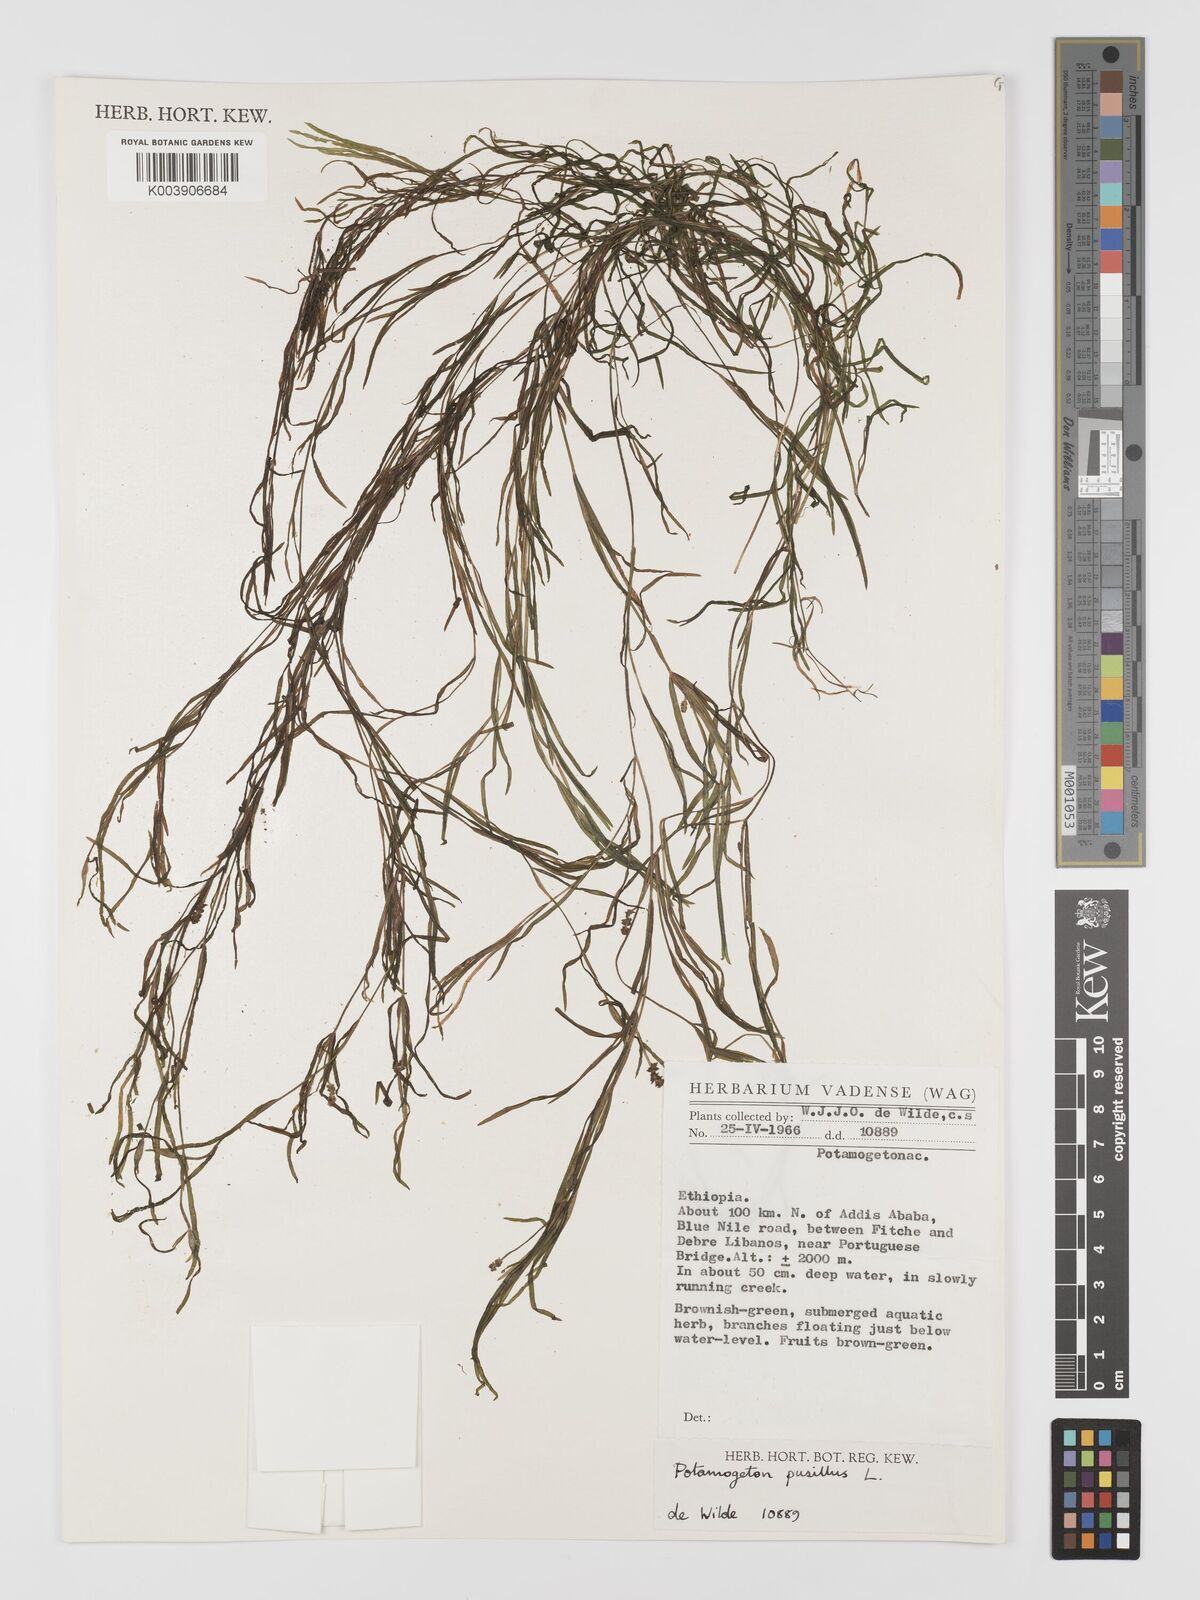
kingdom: Plantae
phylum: Tracheophyta
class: Liliopsida
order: Alismatales
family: Potamogetonaceae
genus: Potamogeton
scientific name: Potamogeton parvifolius
